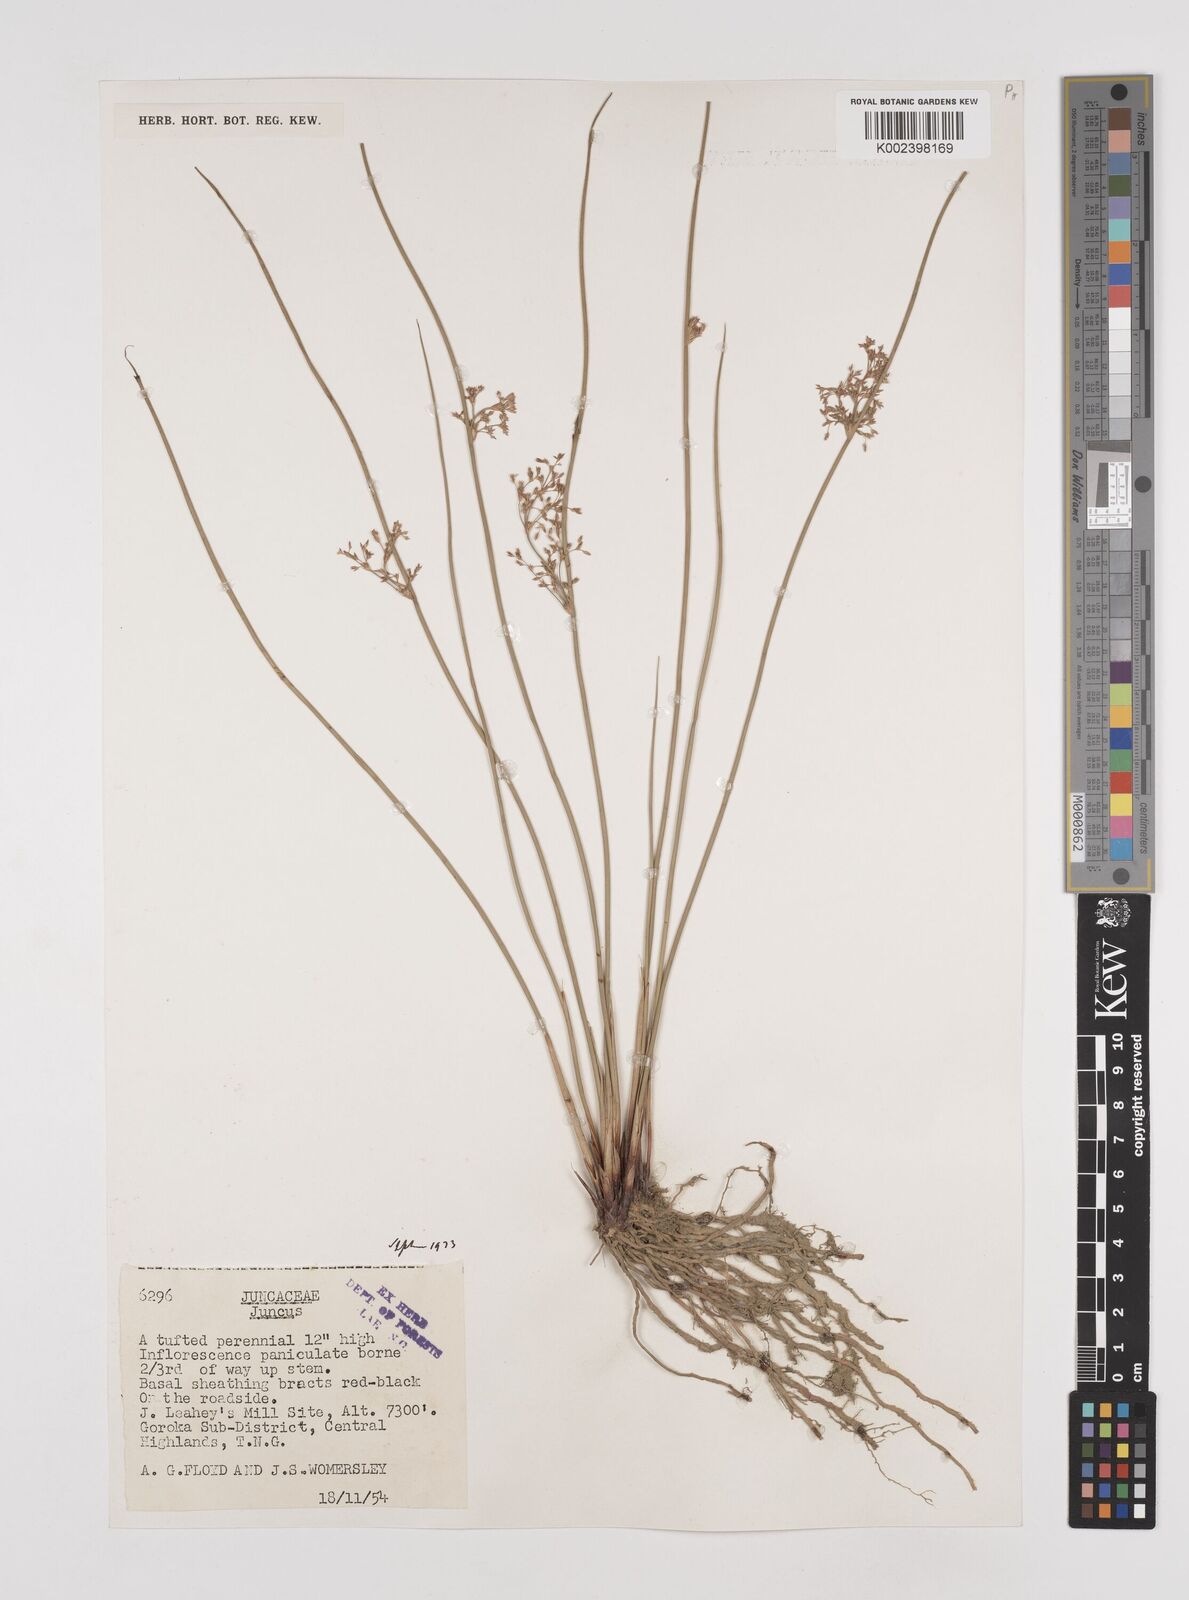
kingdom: Plantae
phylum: Tracheophyta
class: Liliopsida
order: Poales
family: Juncaceae
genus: Juncus
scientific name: Juncus effusus
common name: Soft rush
